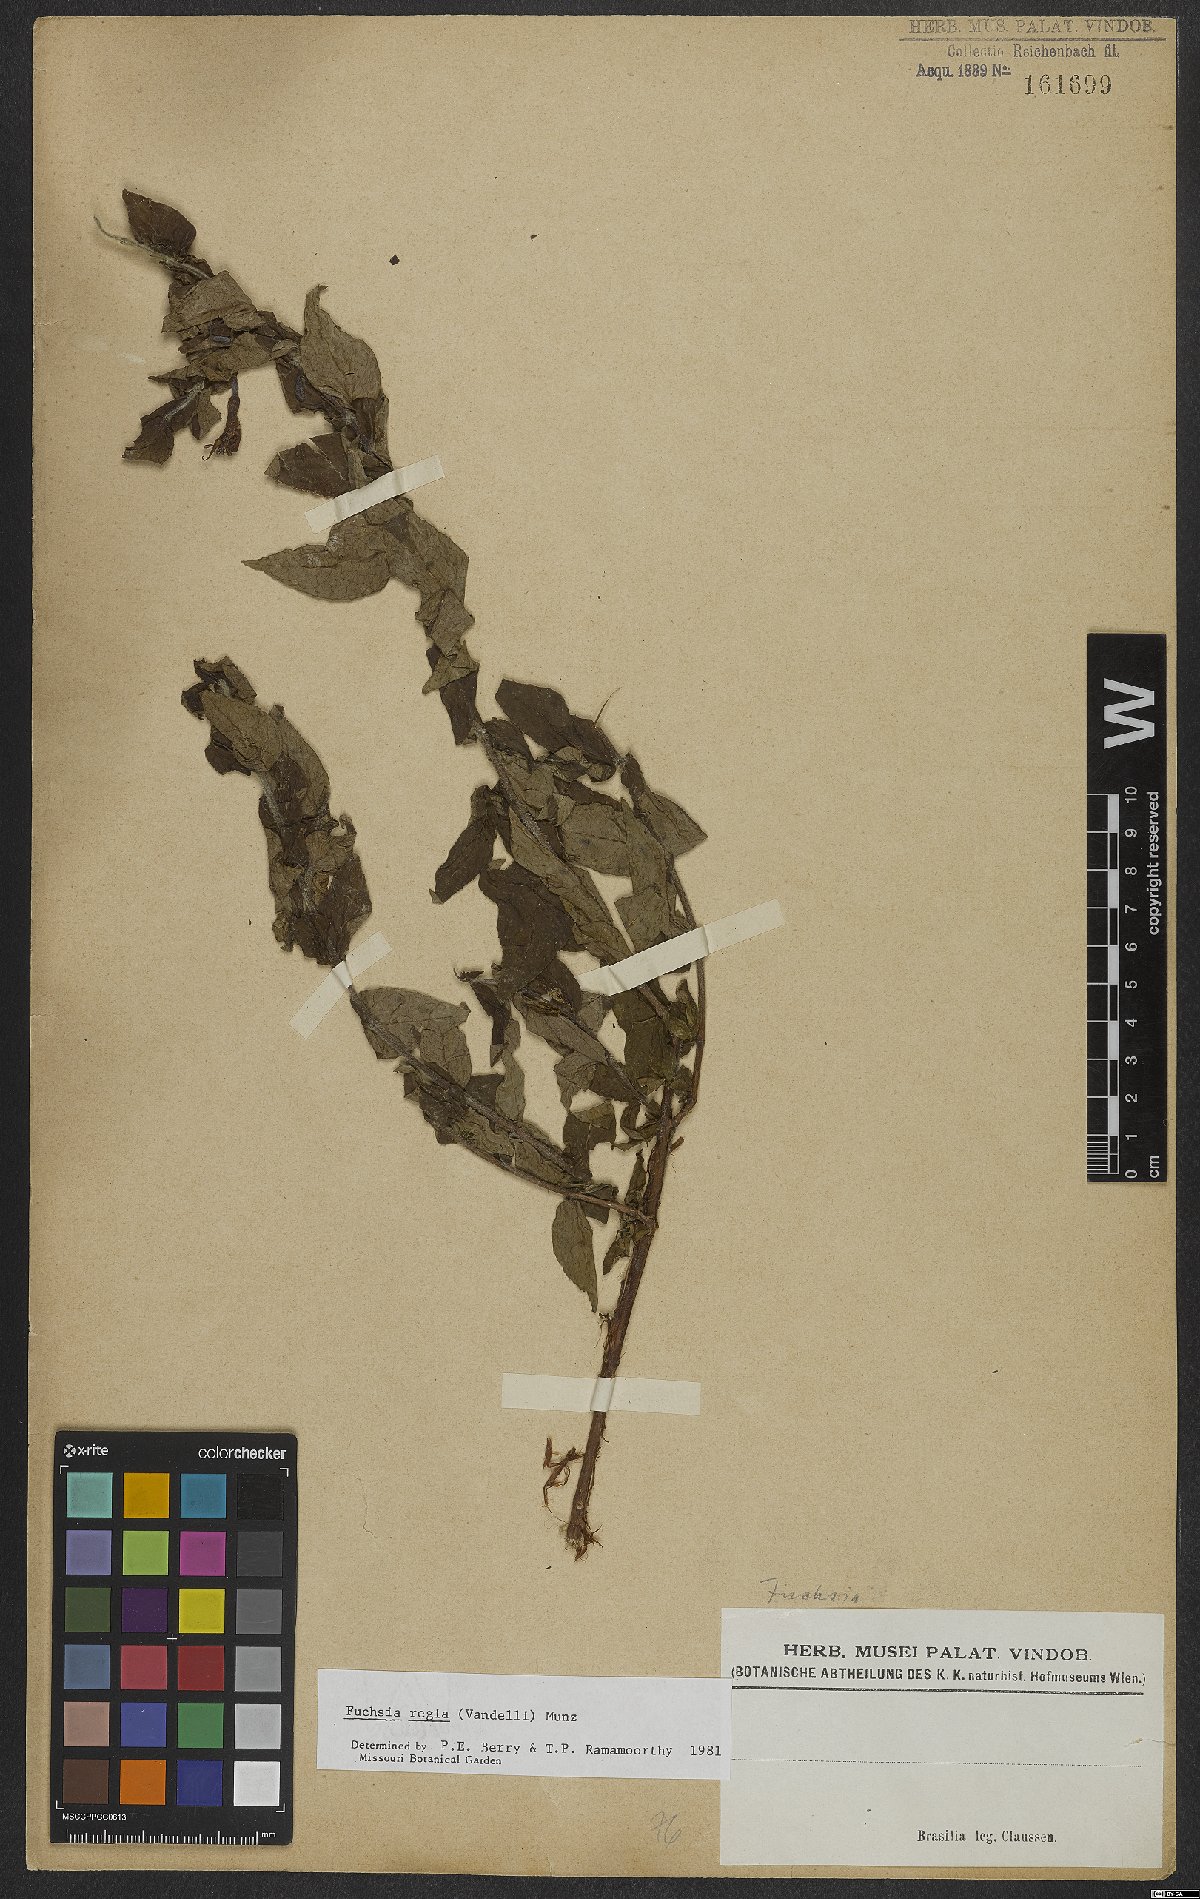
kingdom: Plantae
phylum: Tracheophyta
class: Magnoliopsida
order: Myrtales
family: Onagraceae
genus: Fuchsia
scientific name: Fuchsia regia
